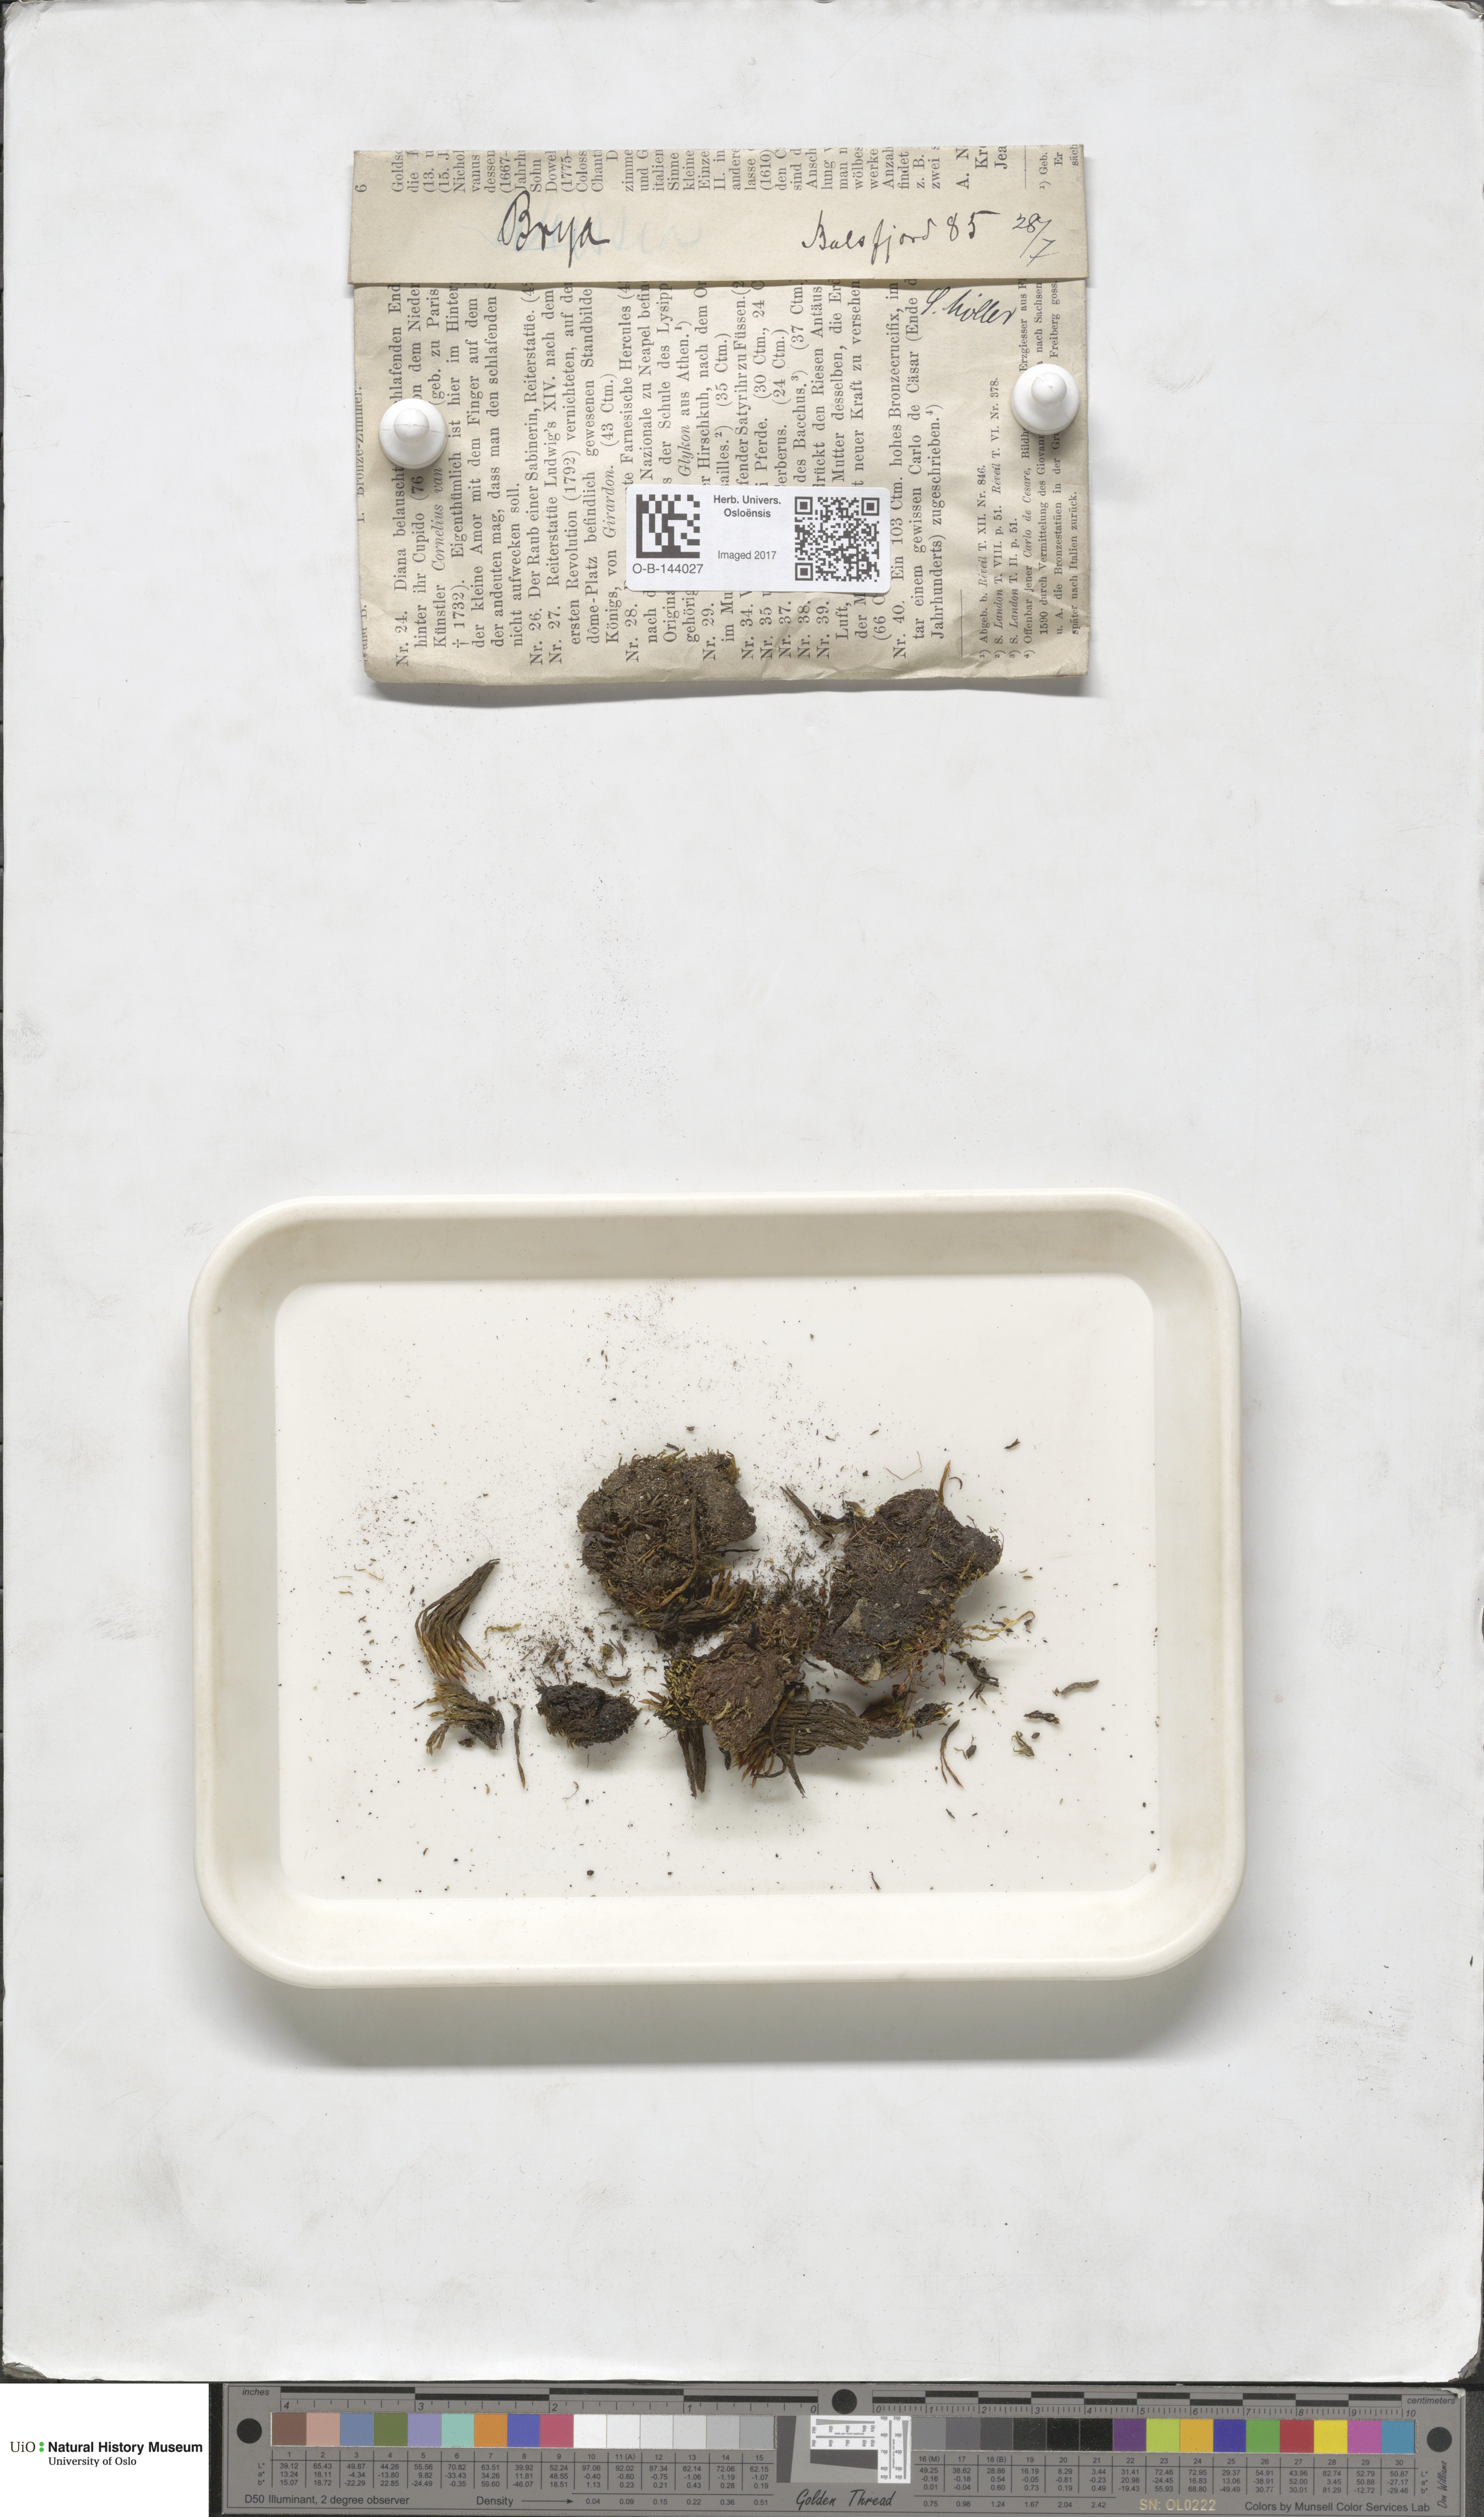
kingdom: Plantae
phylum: Bryophyta
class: Bryopsida
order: Bryales
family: Bryaceae
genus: Bryum
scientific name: Bryum
